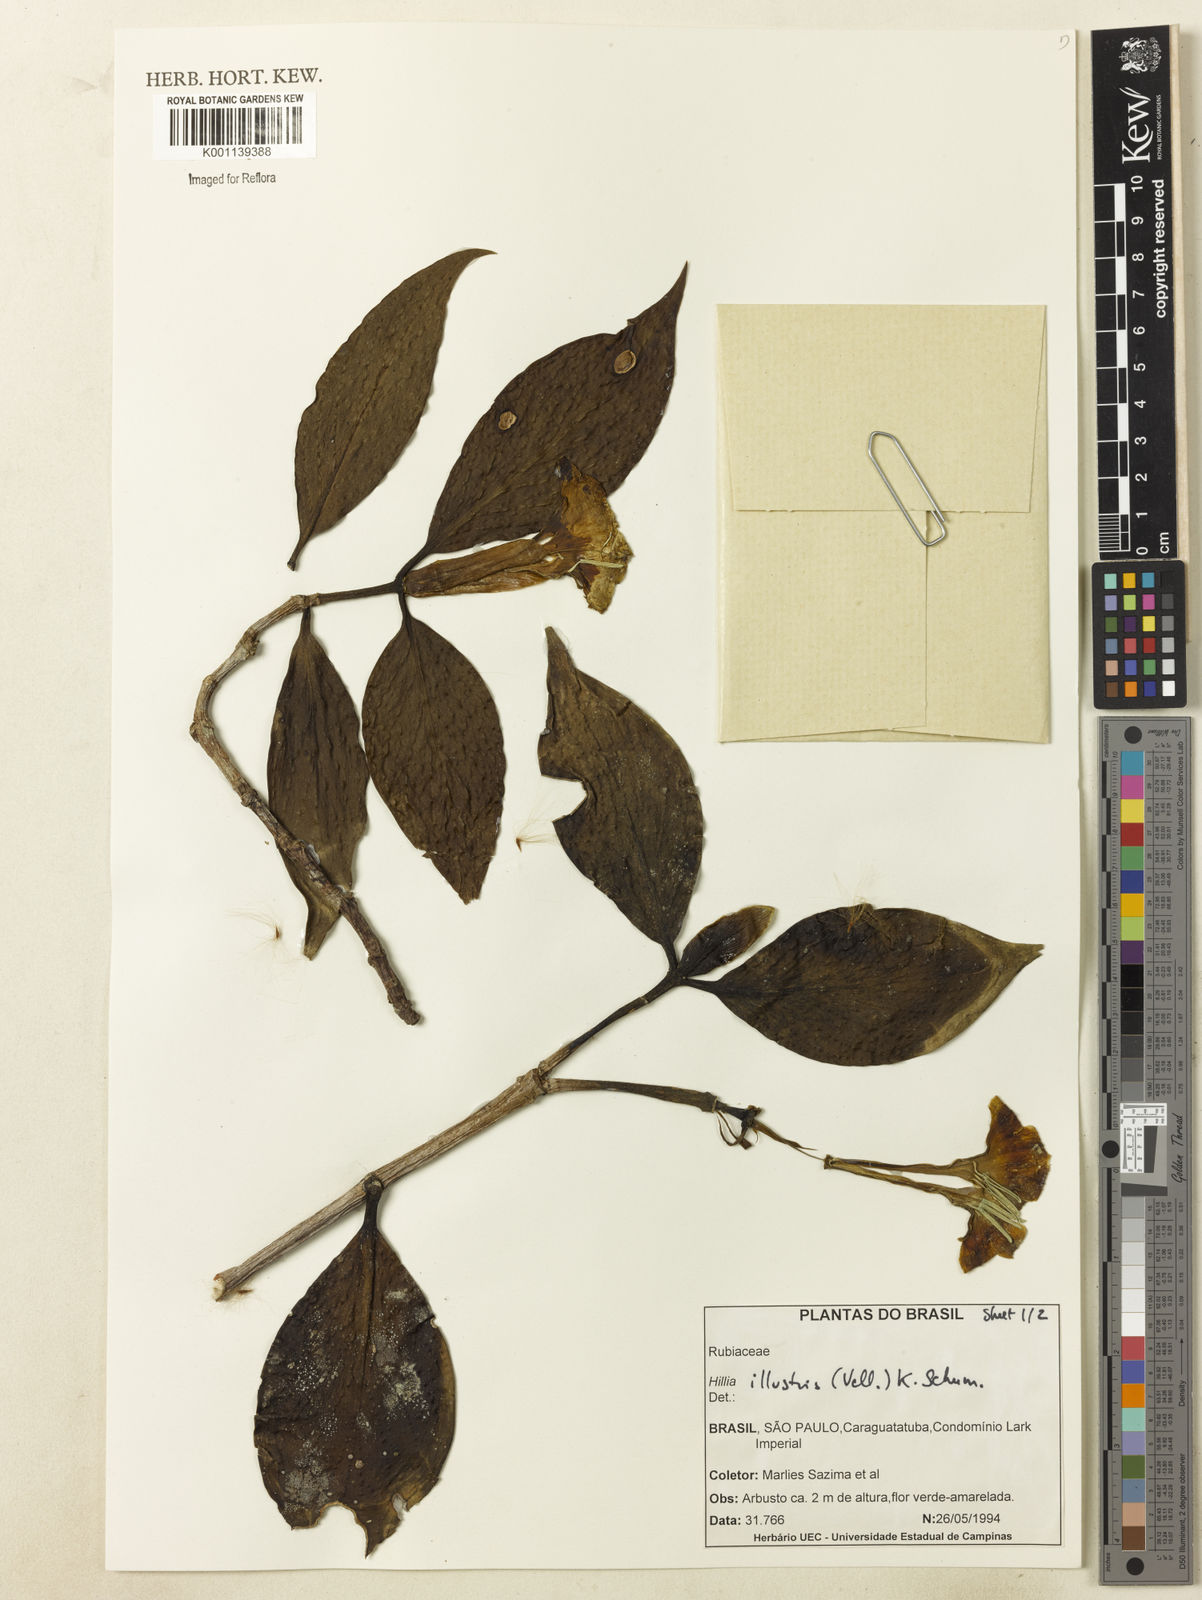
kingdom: Plantae
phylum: Tracheophyta
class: Magnoliopsida
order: Gentianales
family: Rubiaceae
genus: Hillia
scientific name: Hillia illustris
